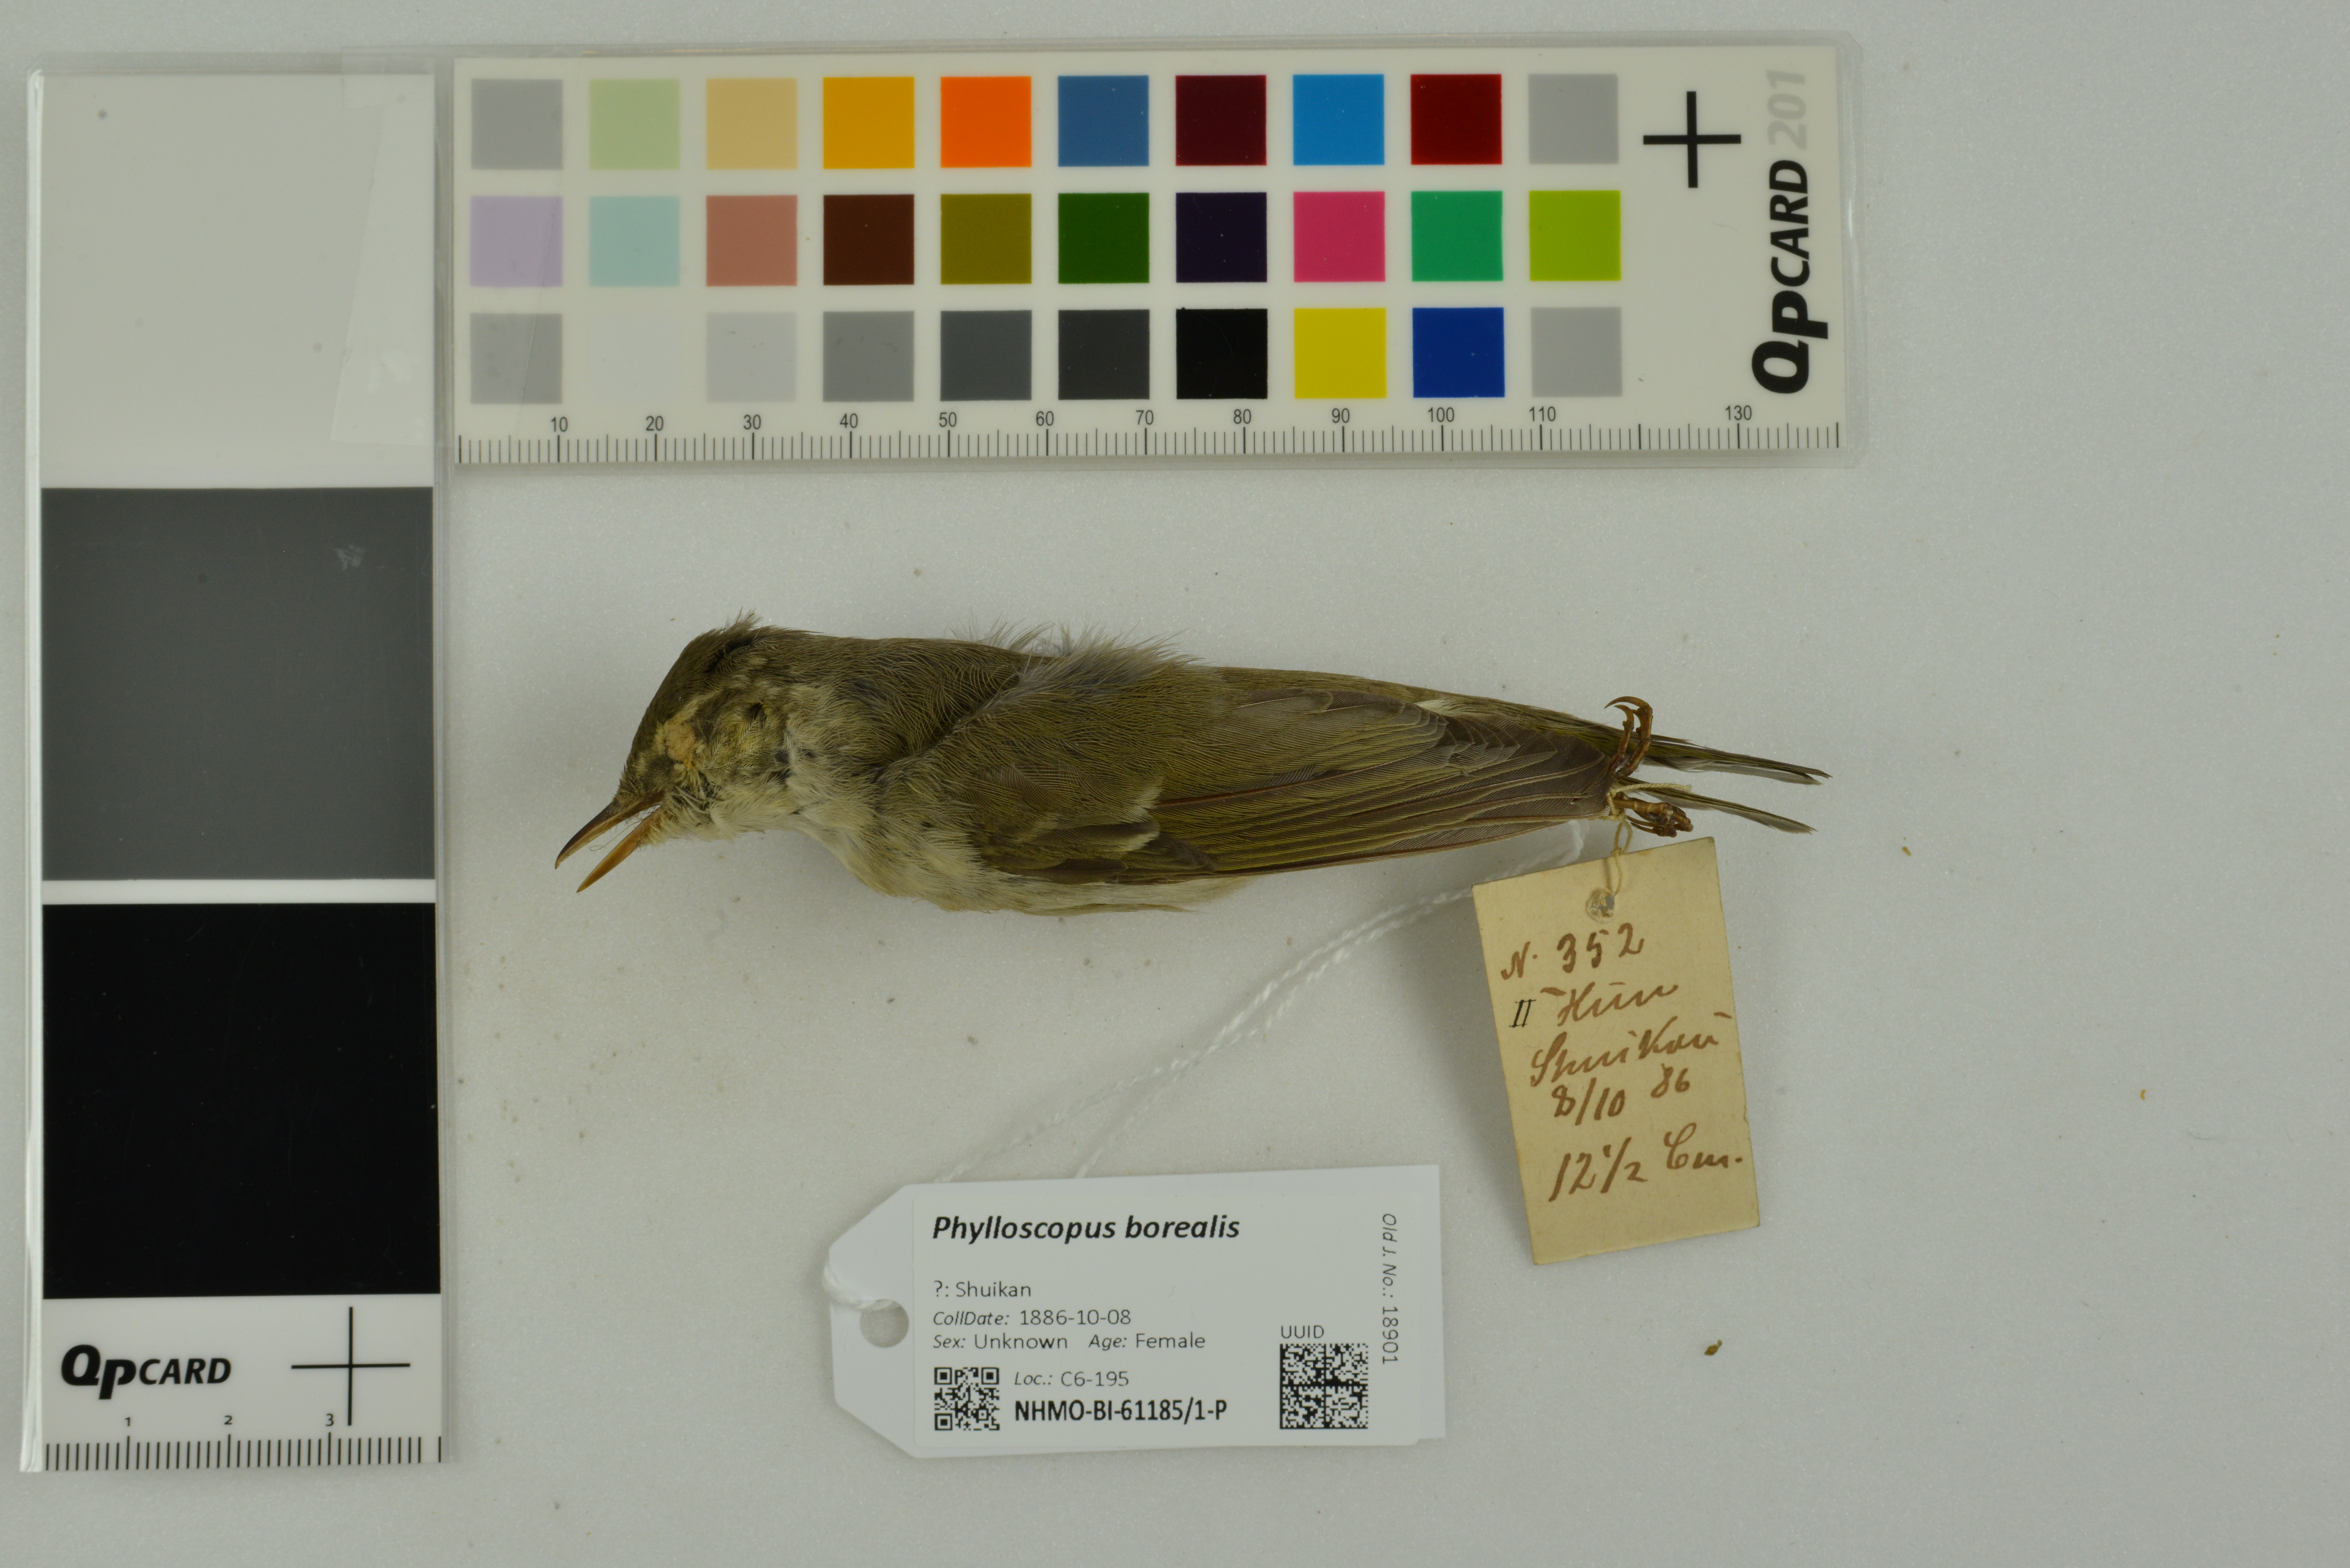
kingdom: Animalia
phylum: Chordata
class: Aves
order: Passeriformes
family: Phylloscopidae
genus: Phylloscopus
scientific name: Phylloscopus borealis
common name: Arctic warbler
